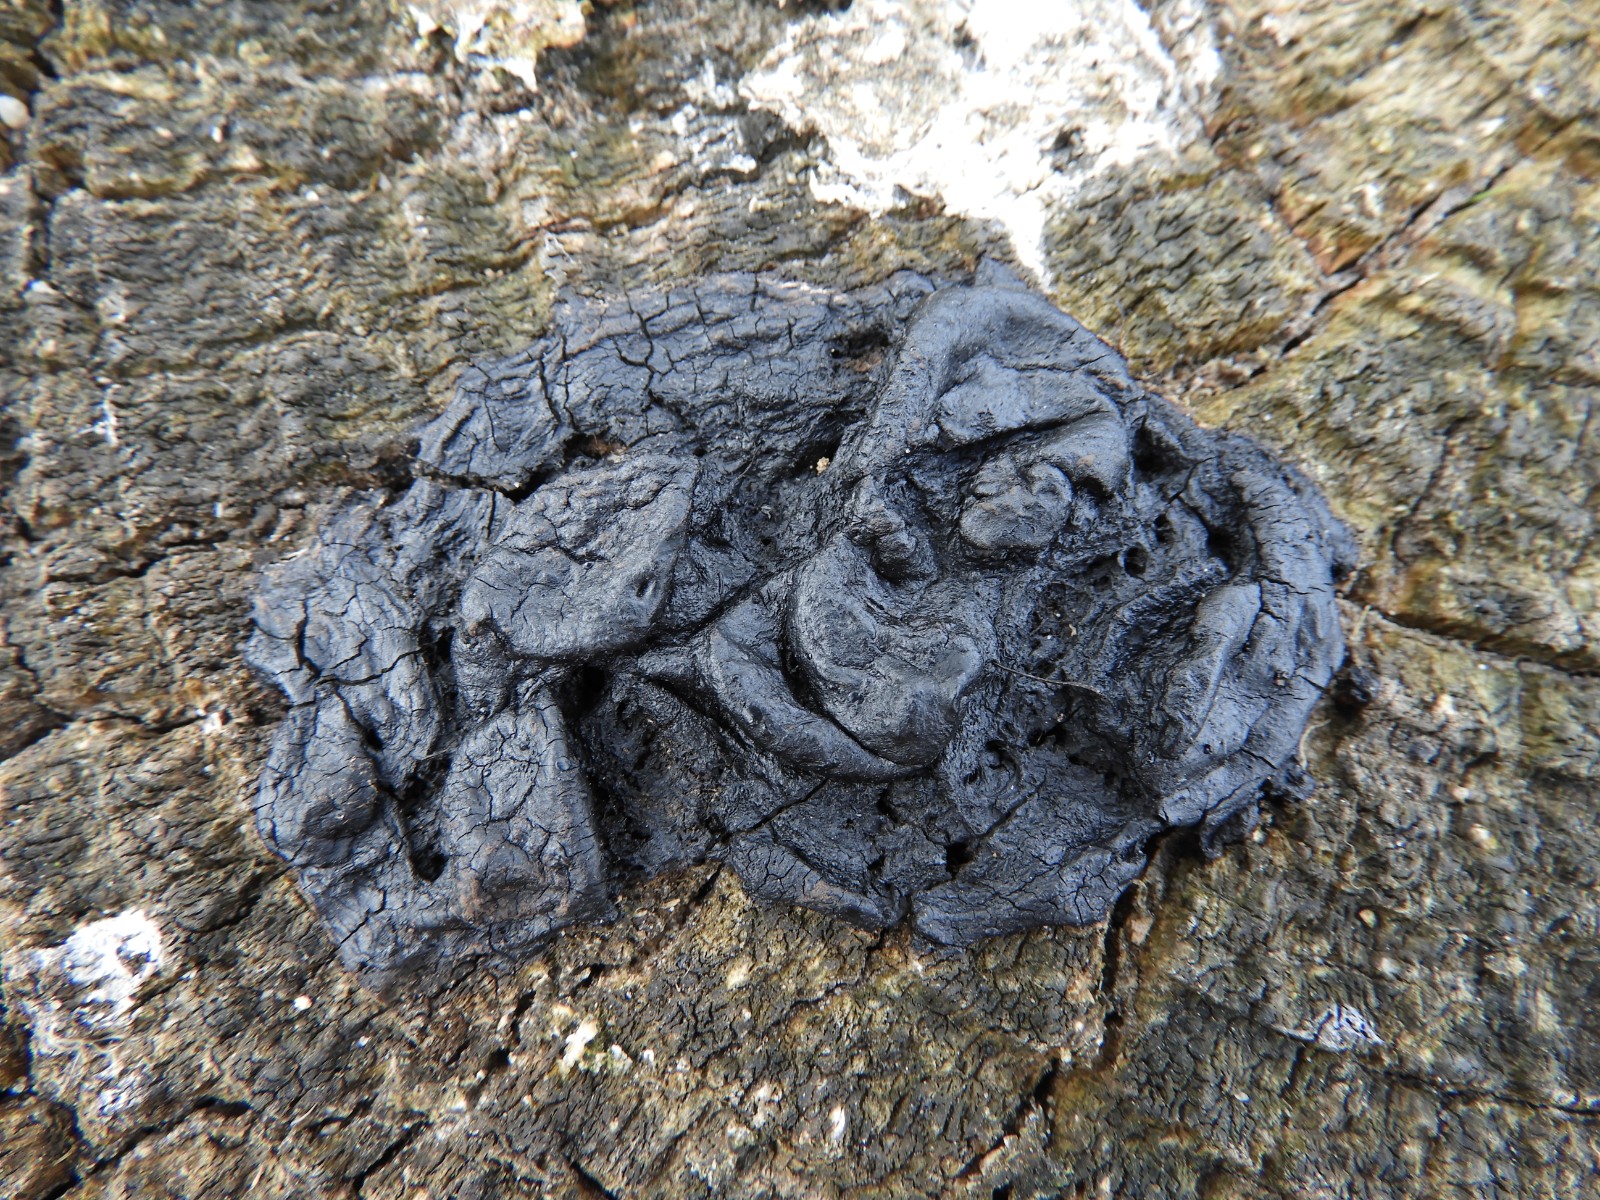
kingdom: Fungi
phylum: Basidiomycota
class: Agaricomycetes
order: Auriculariales
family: Auriculariaceae
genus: Exidia
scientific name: Exidia nigricans
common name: almindelig bævretop
